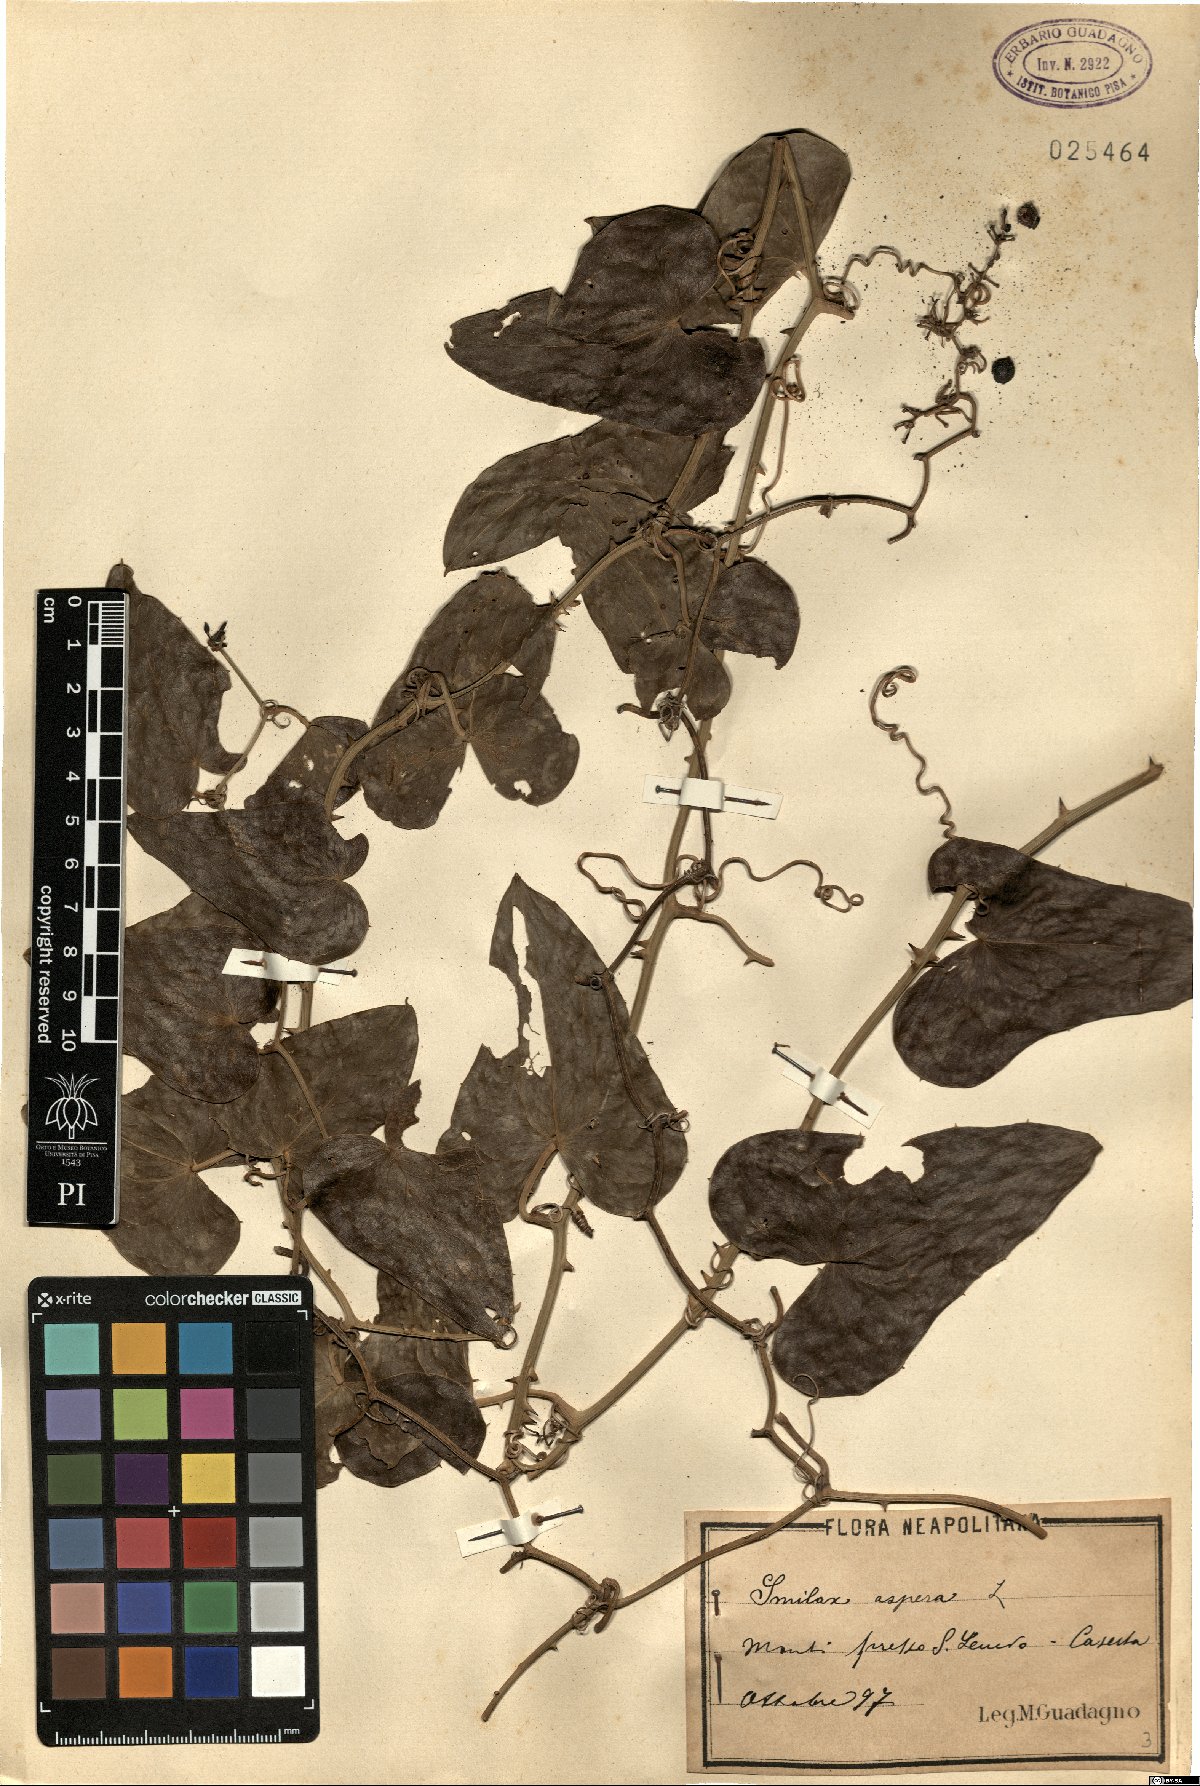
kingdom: Plantae
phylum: Tracheophyta
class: Liliopsida
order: Liliales
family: Smilacaceae
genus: Smilax
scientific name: Smilax aspera
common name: Common smilax
